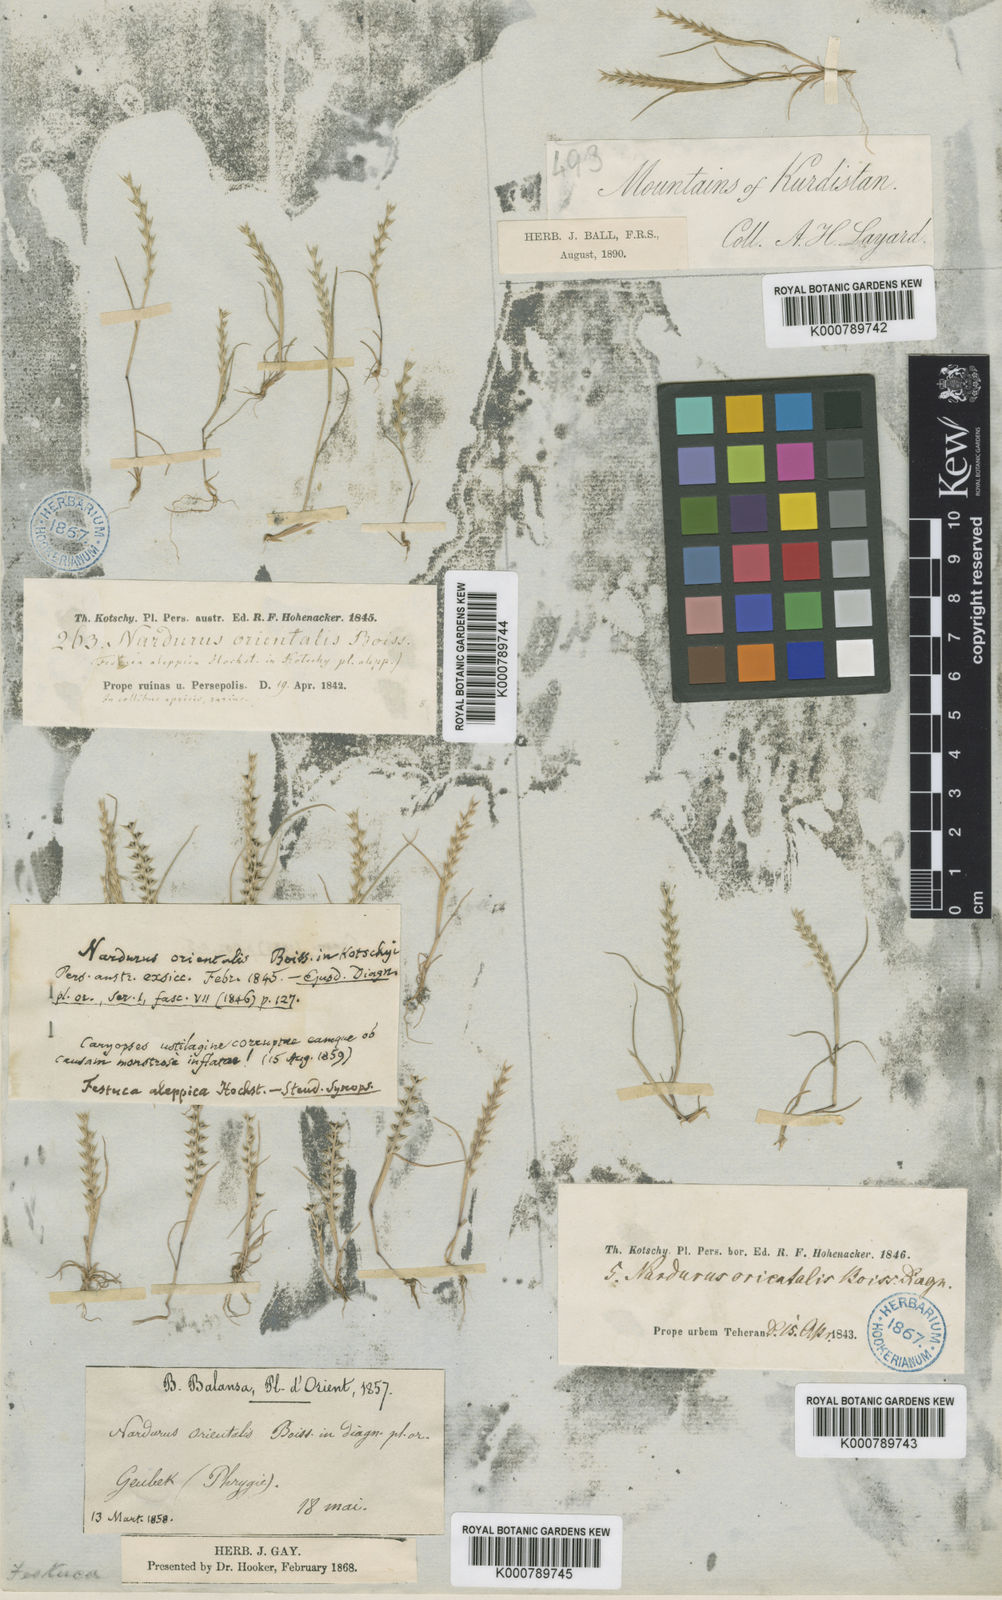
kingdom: Plantae
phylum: Tracheophyta
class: Liliopsida
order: Poales
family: Poaceae
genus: Festuca
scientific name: Festuca orientalis
